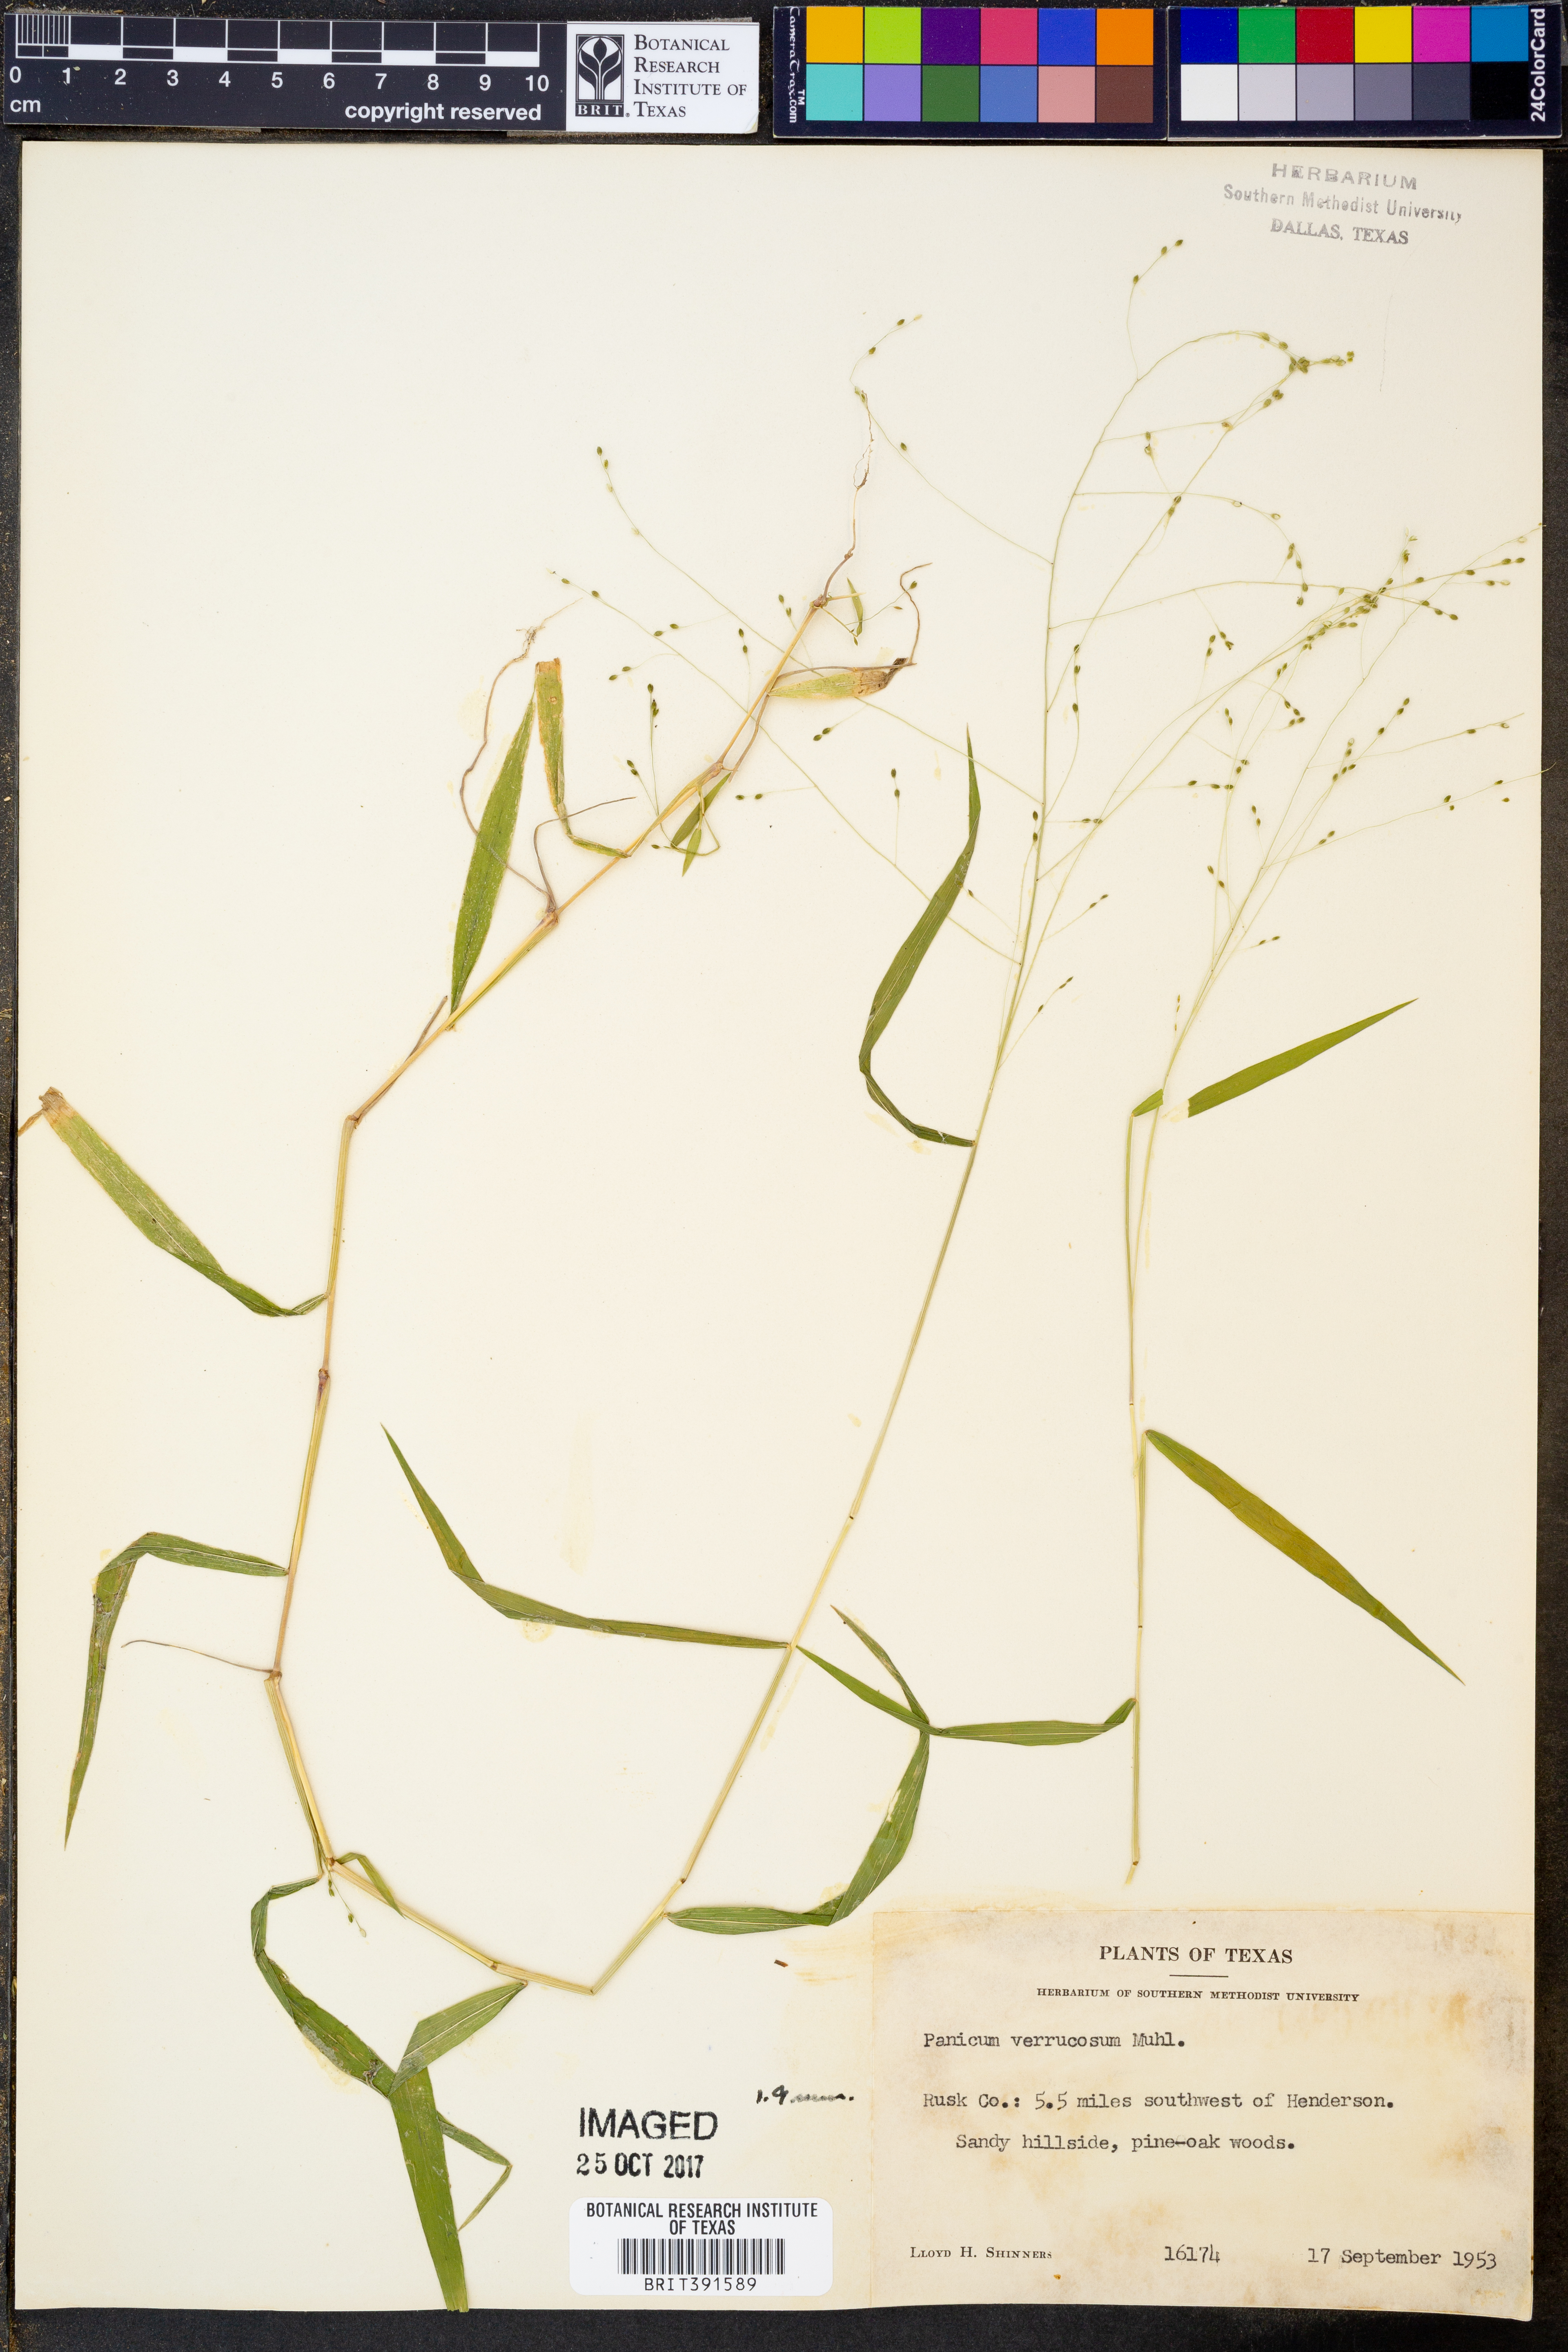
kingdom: Plantae
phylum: Tracheophyta
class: Liliopsida
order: Poales
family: Poaceae
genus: Kellochloa
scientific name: Kellochloa verrucosa
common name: Warty panic grass
